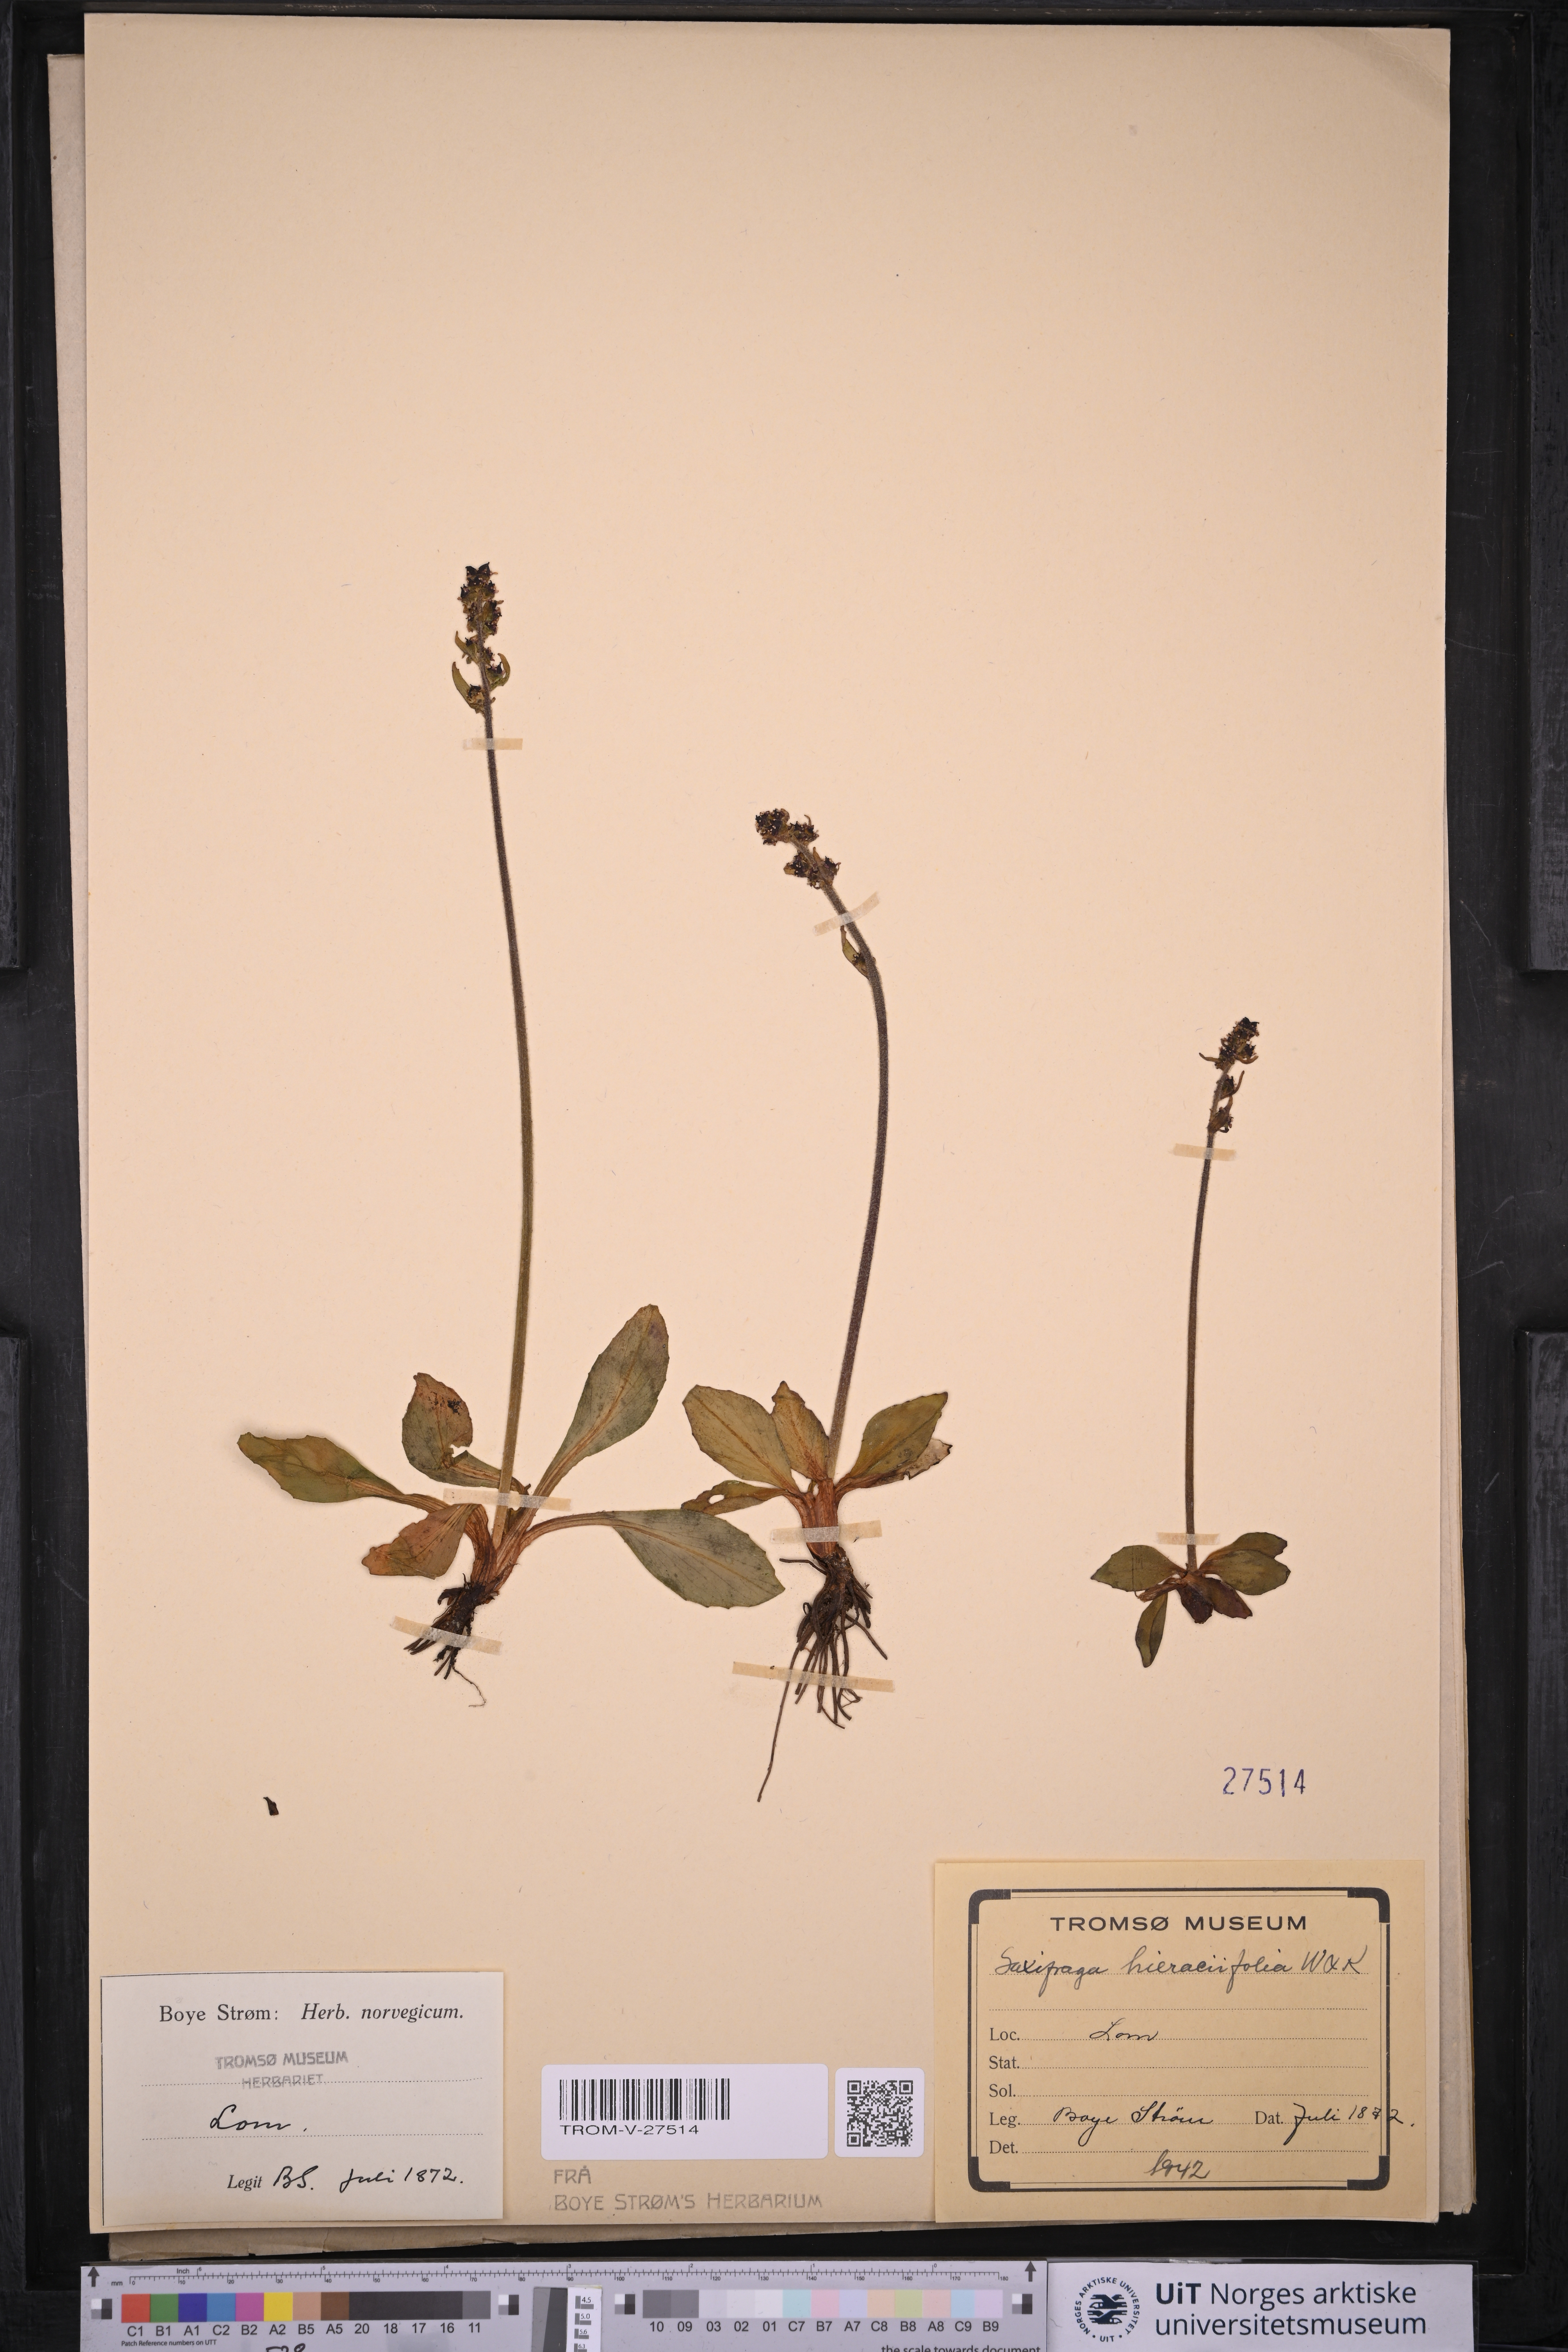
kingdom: Plantae
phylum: Tracheophyta
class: Magnoliopsida
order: Saxifragales
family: Saxifragaceae
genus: Micranthes
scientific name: Micranthes hieraciifolia
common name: Hawkweed-leaved saxifrage
